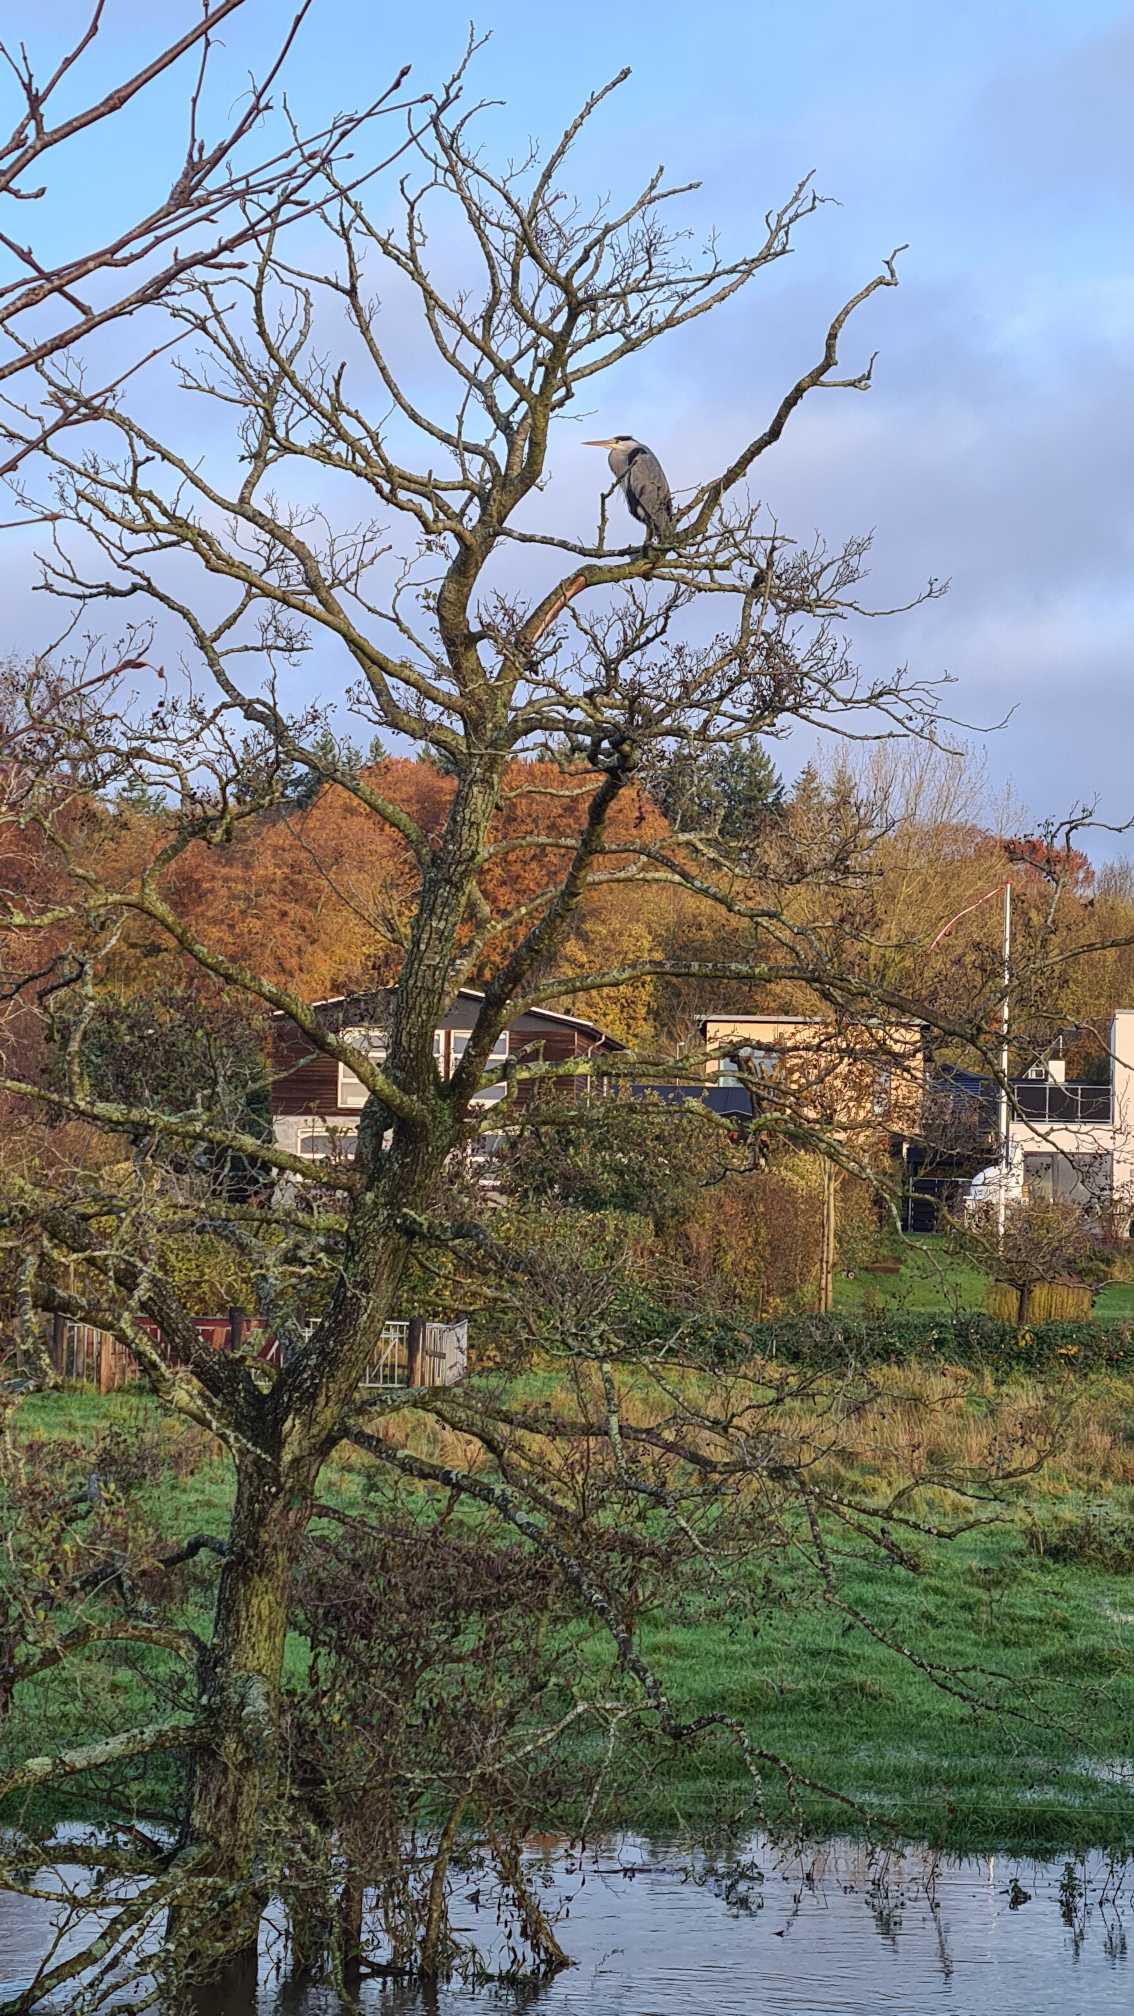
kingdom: Animalia
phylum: Chordata
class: Aves
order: Pelecaniformes
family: Ardeidae
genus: Ardea
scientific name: Ardea cinerea
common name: Fiskehejre
